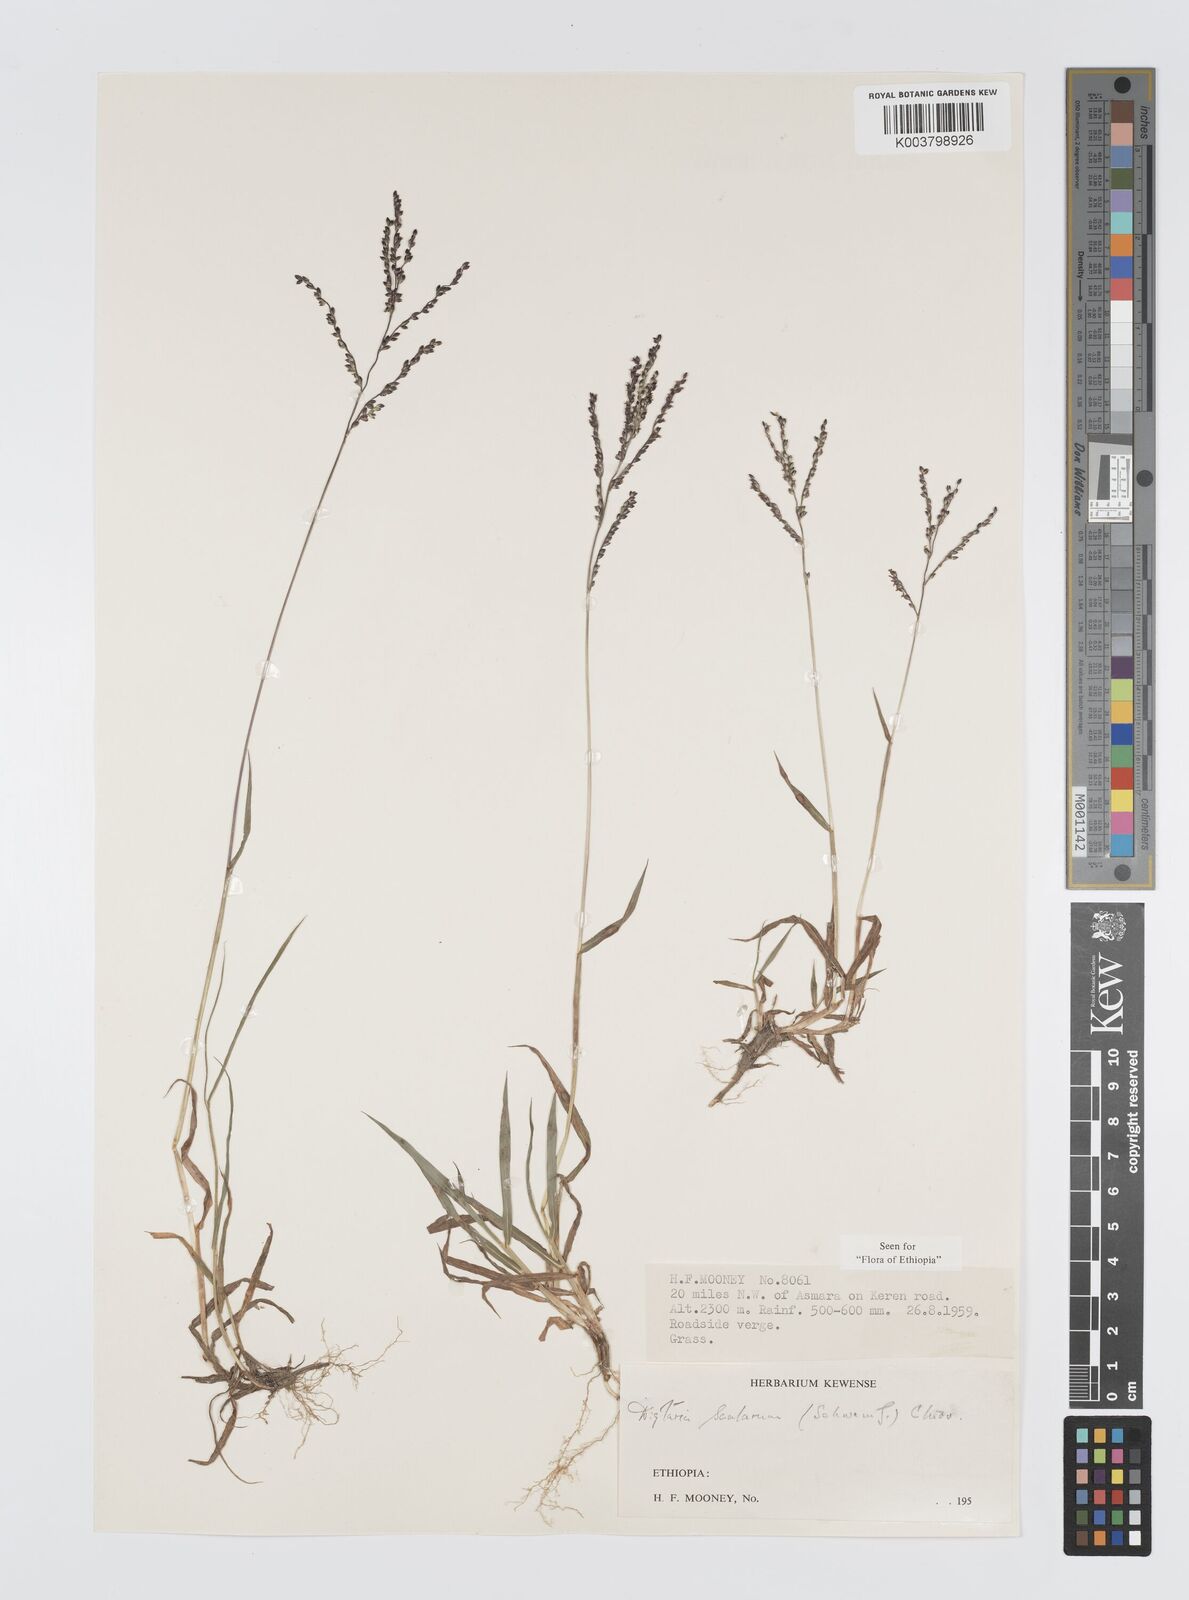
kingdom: Plantae
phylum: Tracheophyta
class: Liliopsida
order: Poales
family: Poaceae
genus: Digitaria
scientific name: Digitaria abyssinica
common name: African couchgrass
